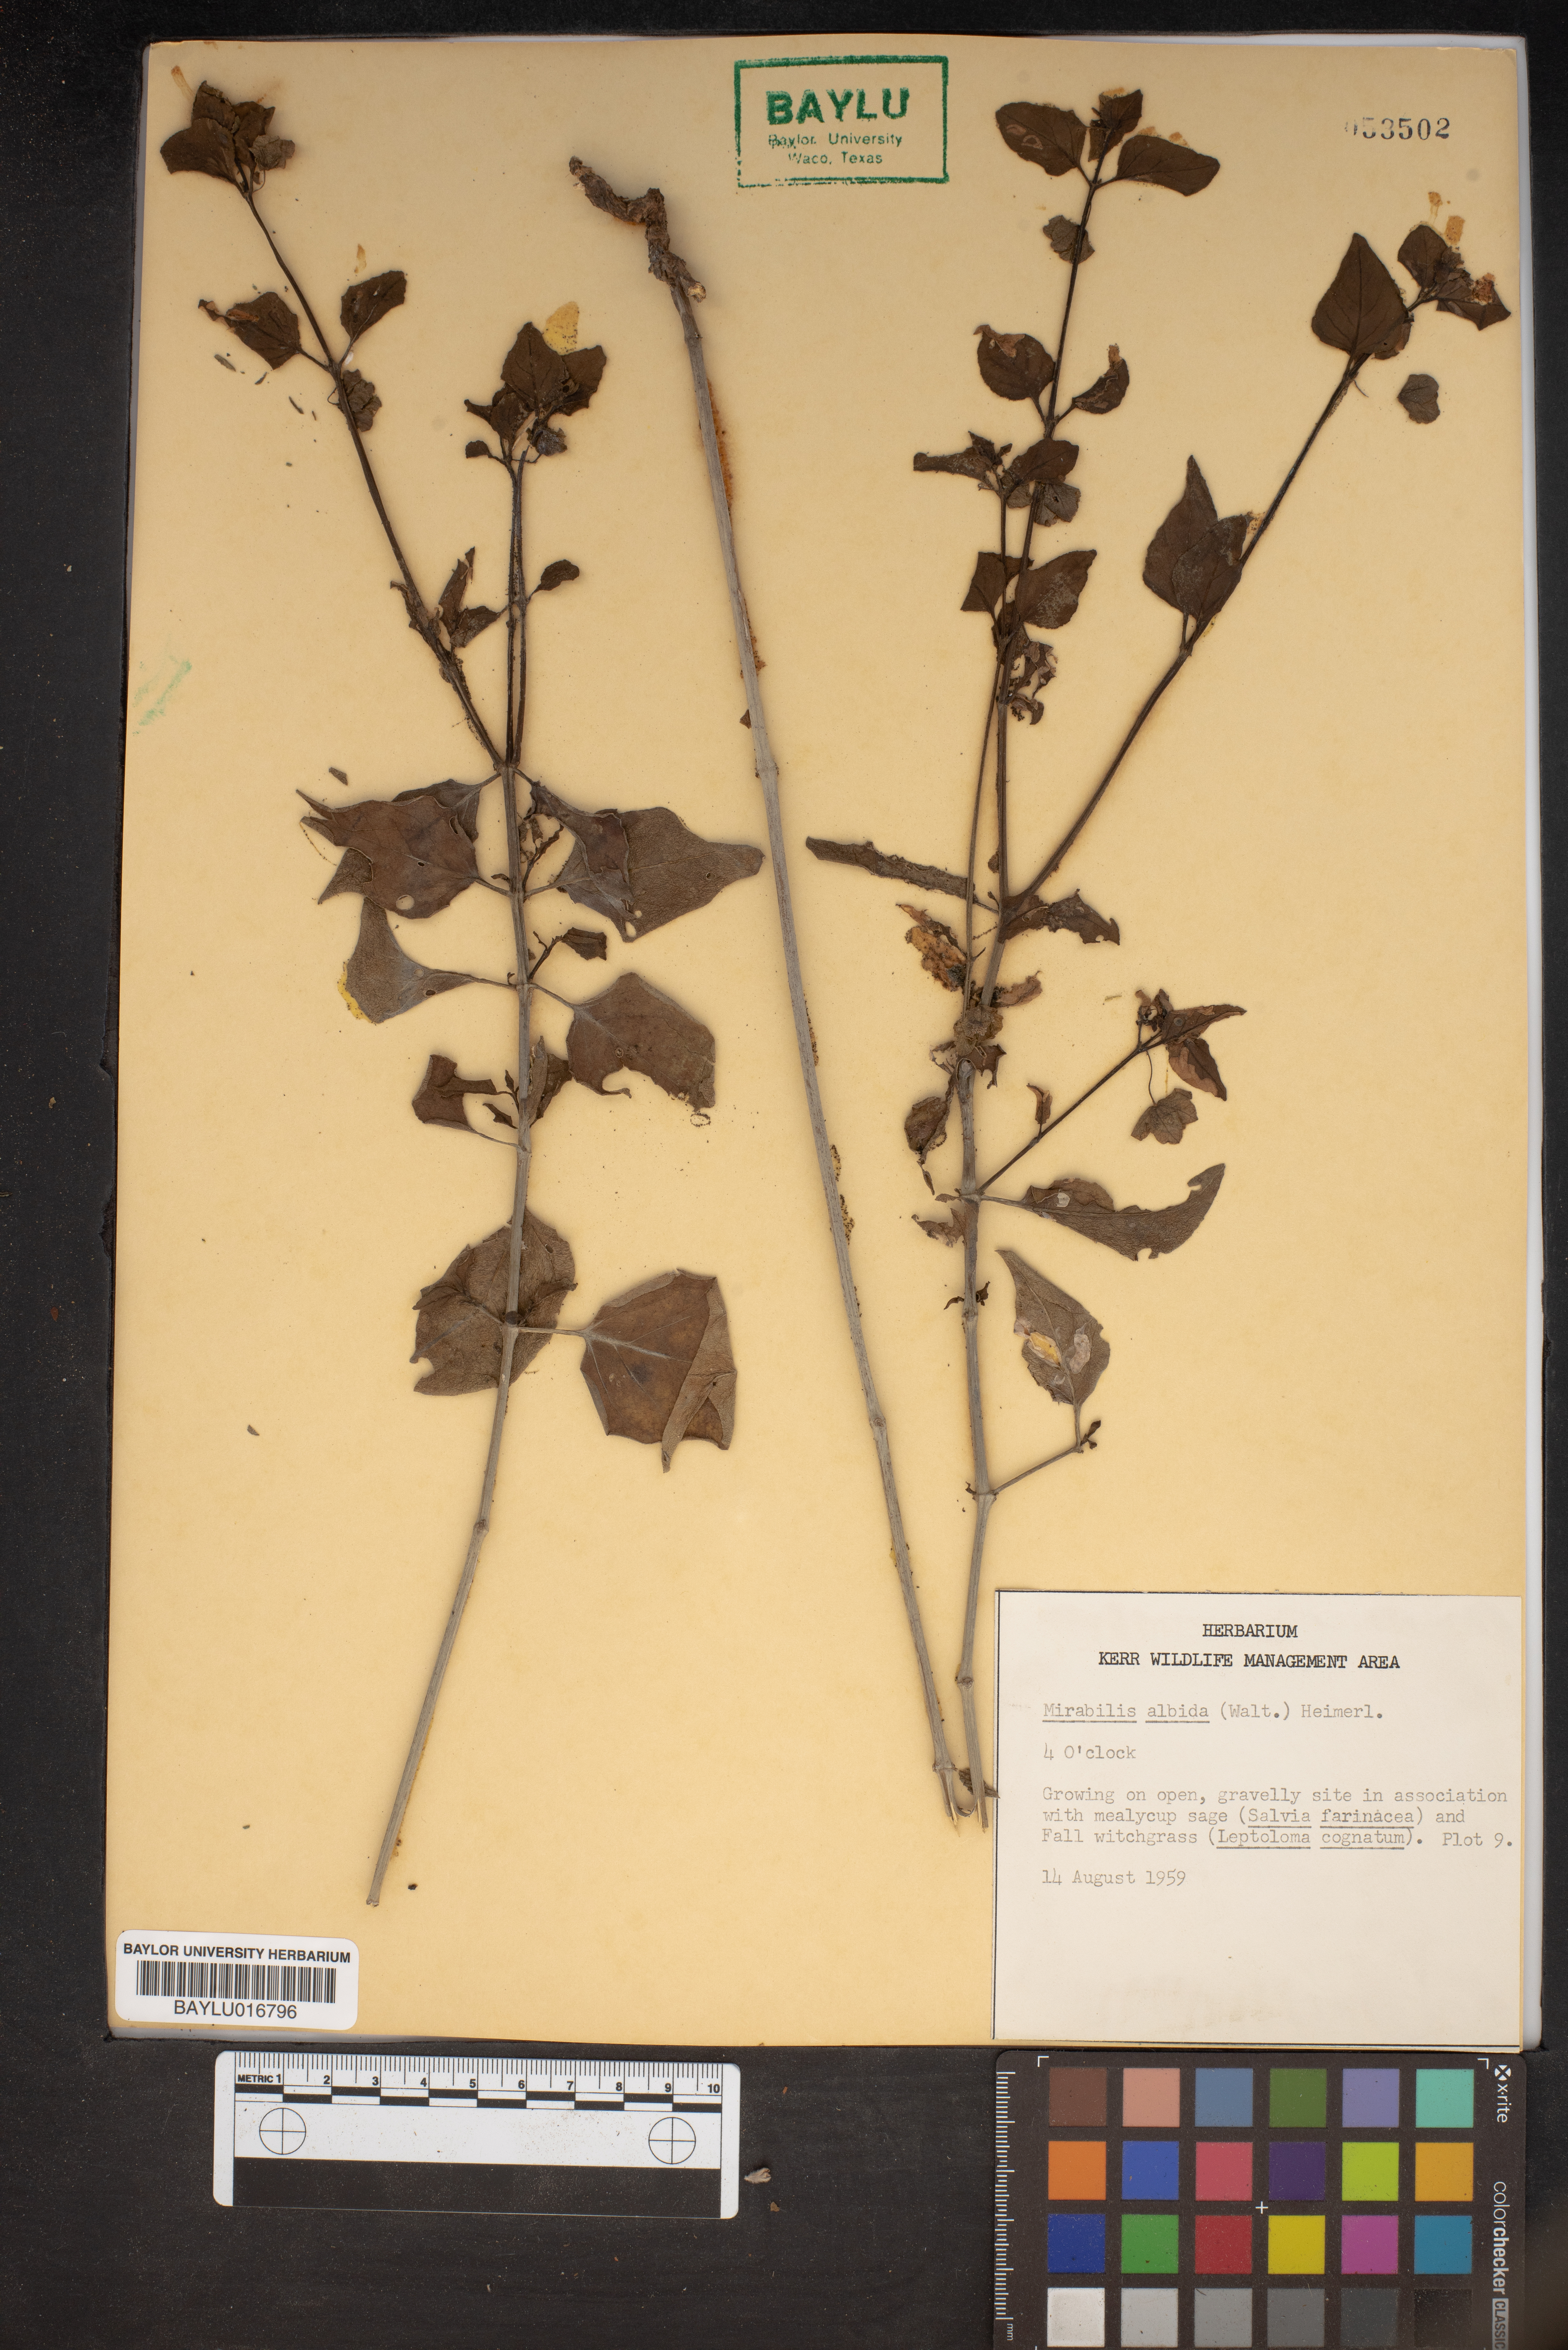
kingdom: Plantae
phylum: Tracheophyta
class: Magnoliopsida
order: Caryophyllales
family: Nyctaginaceae
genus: Mirabilis
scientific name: Mirabilis albida
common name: Hairy four-o'clock
